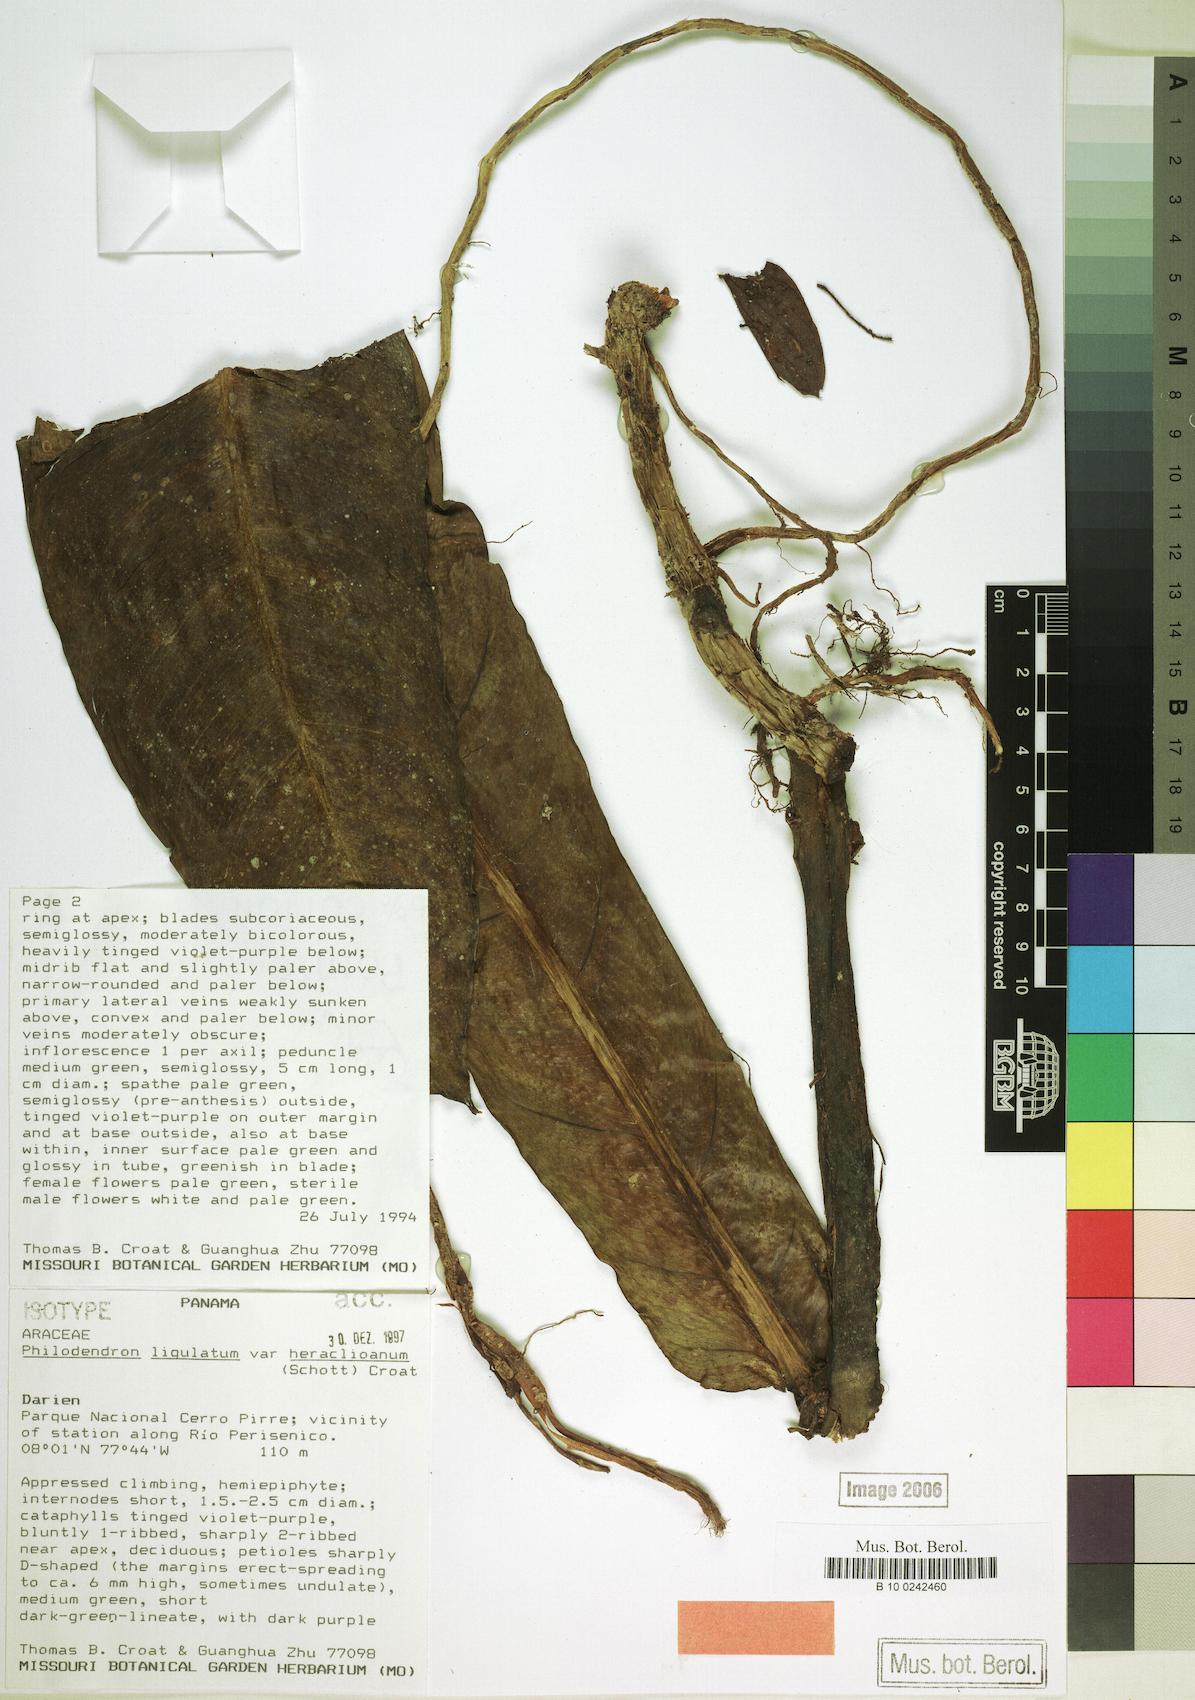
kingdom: Plantae
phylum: Tracheophyta
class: Liliopsida
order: Alismatales
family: Araceae
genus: Philodendron
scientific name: Philodendron ligulatum
